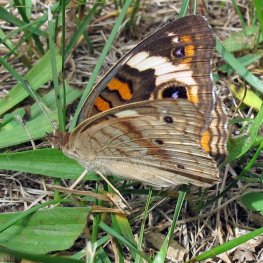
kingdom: Animalia
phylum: Arthropoda
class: Insecta
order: Lepidoptera
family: Nymphalidae
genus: Junonia
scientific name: Junonia coenia
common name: Common Buckeye
